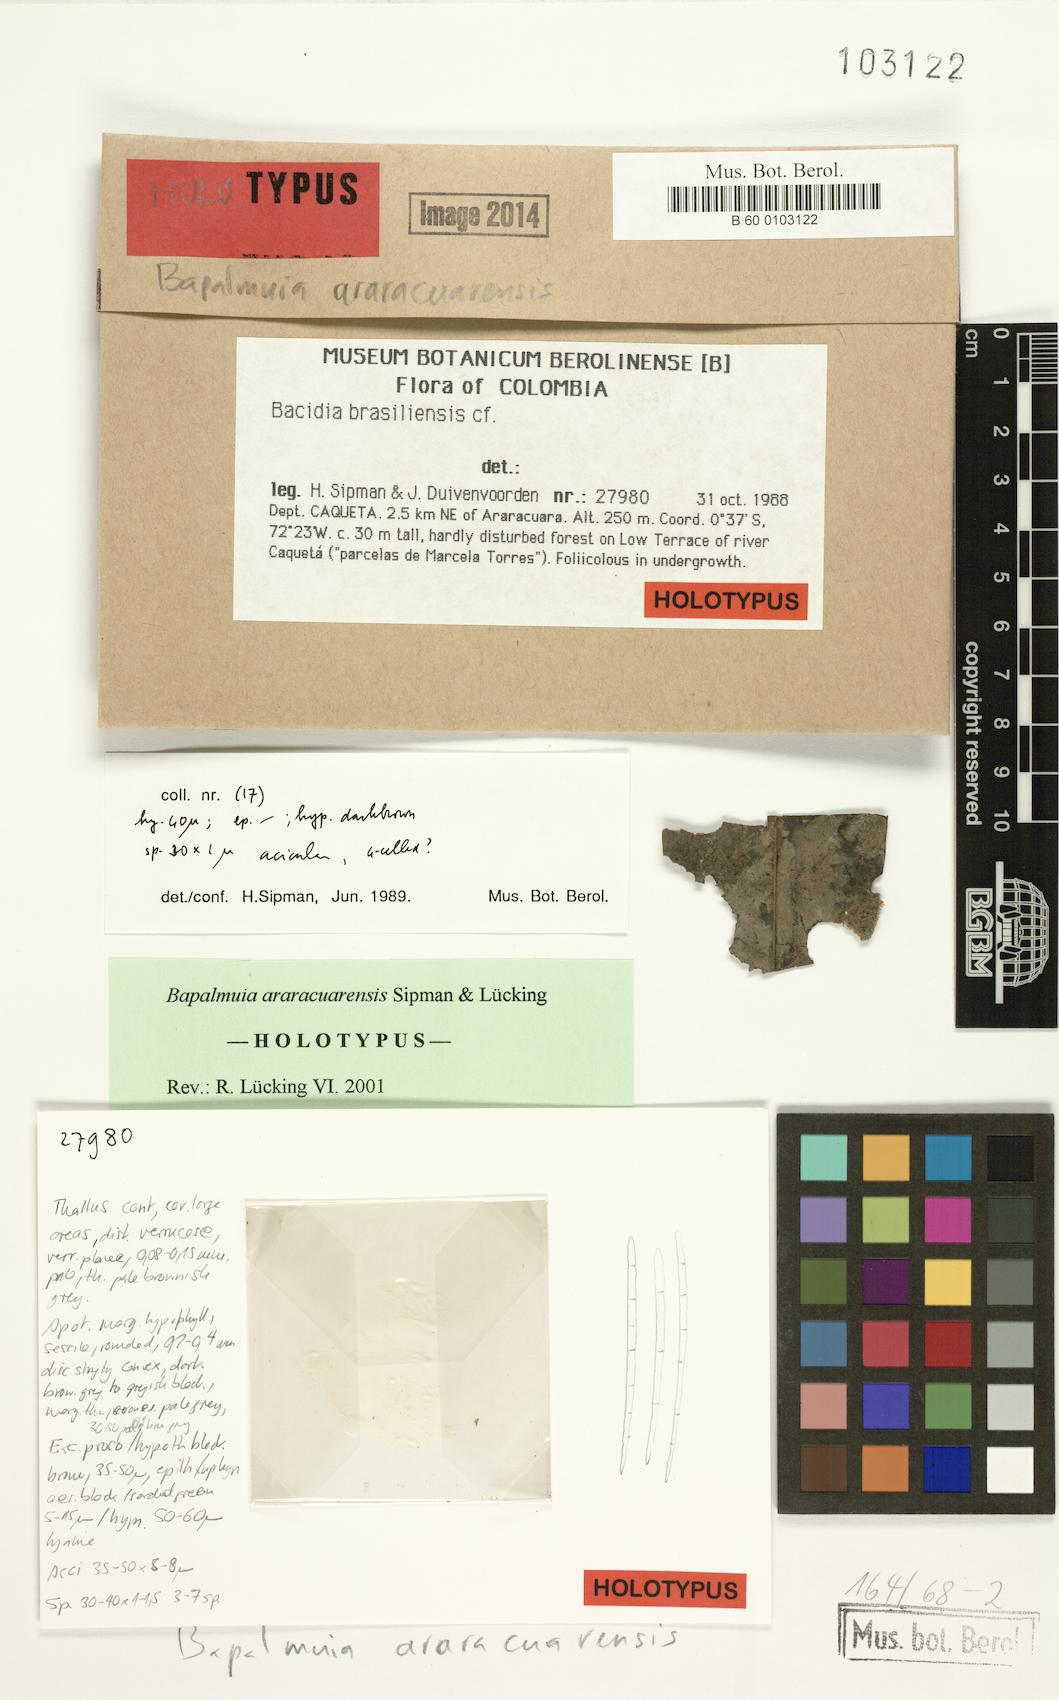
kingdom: Fungi
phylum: Ascomycota
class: Lecanoromycetes
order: Lecanorales
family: Byssolomataceae
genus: Bapalmuia
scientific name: Bapalmuia araracuarensis
